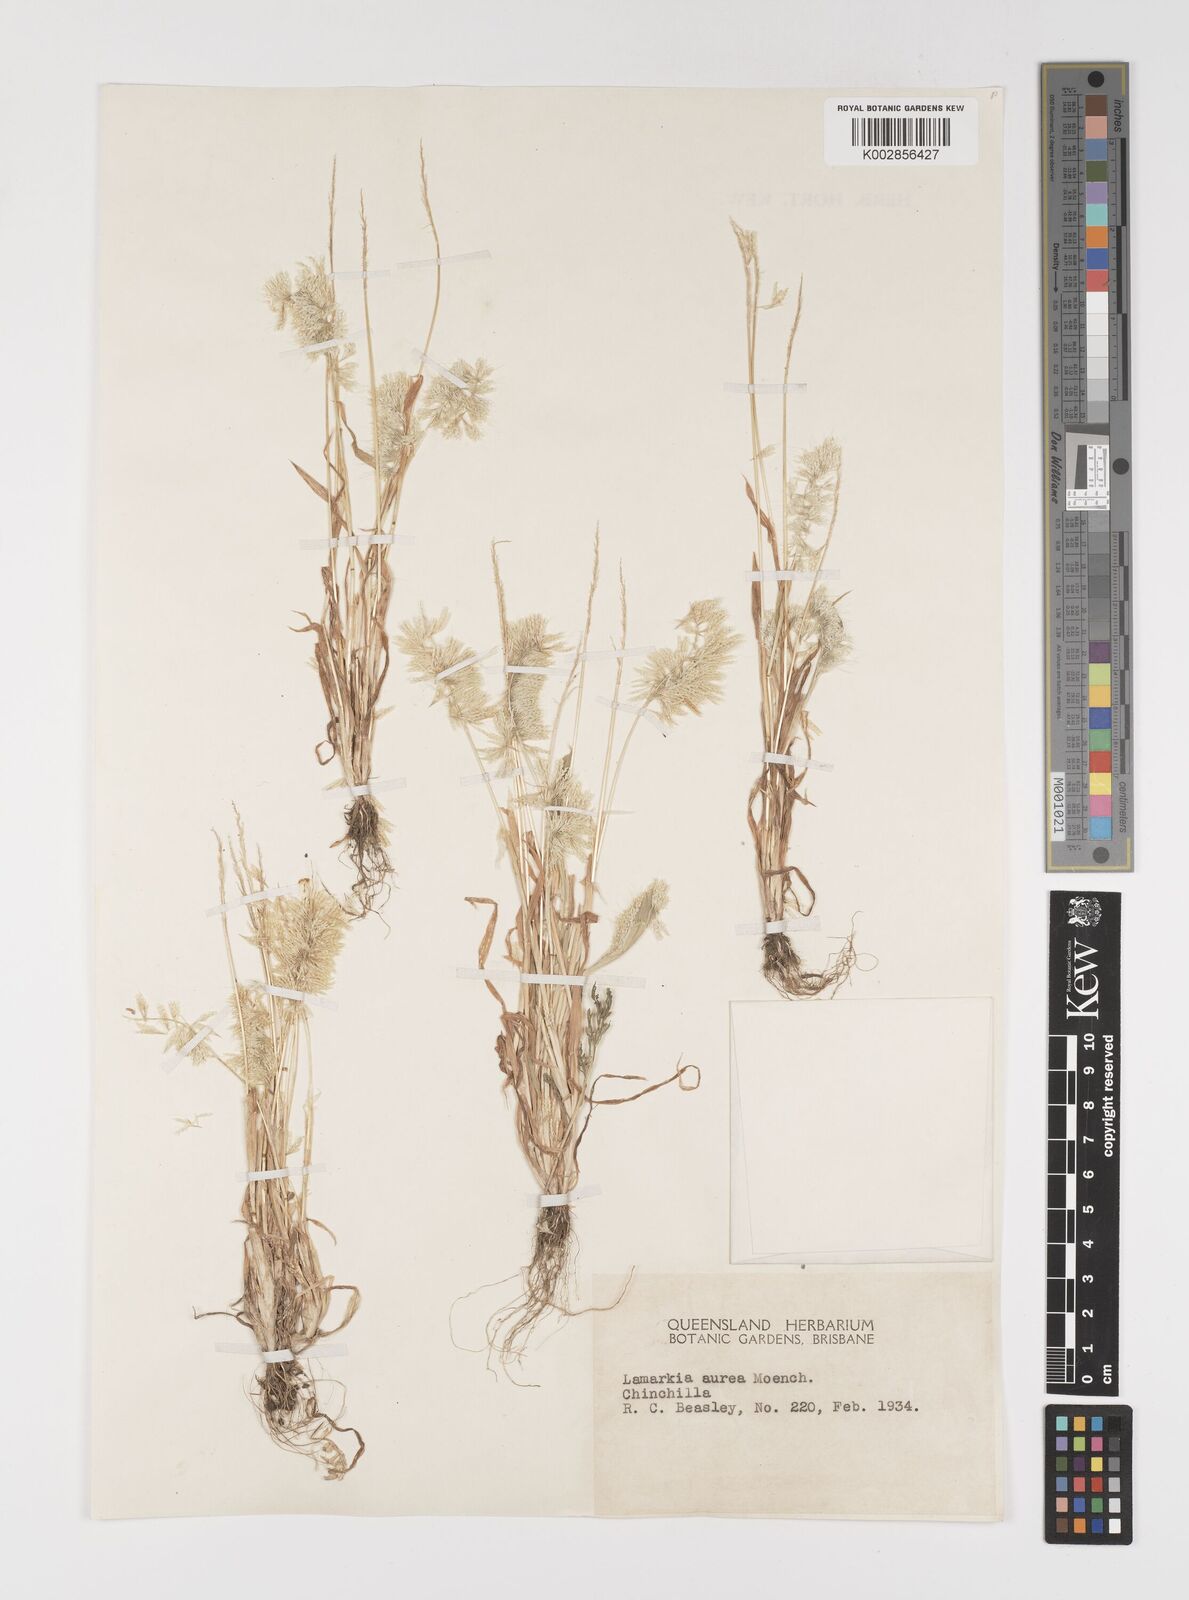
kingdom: Plantae
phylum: Tracheophyta
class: Liliopsida
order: Poales
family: Poaceae
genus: Lamarckia
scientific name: Lamarckia aurea
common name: Golden dog's-tail
